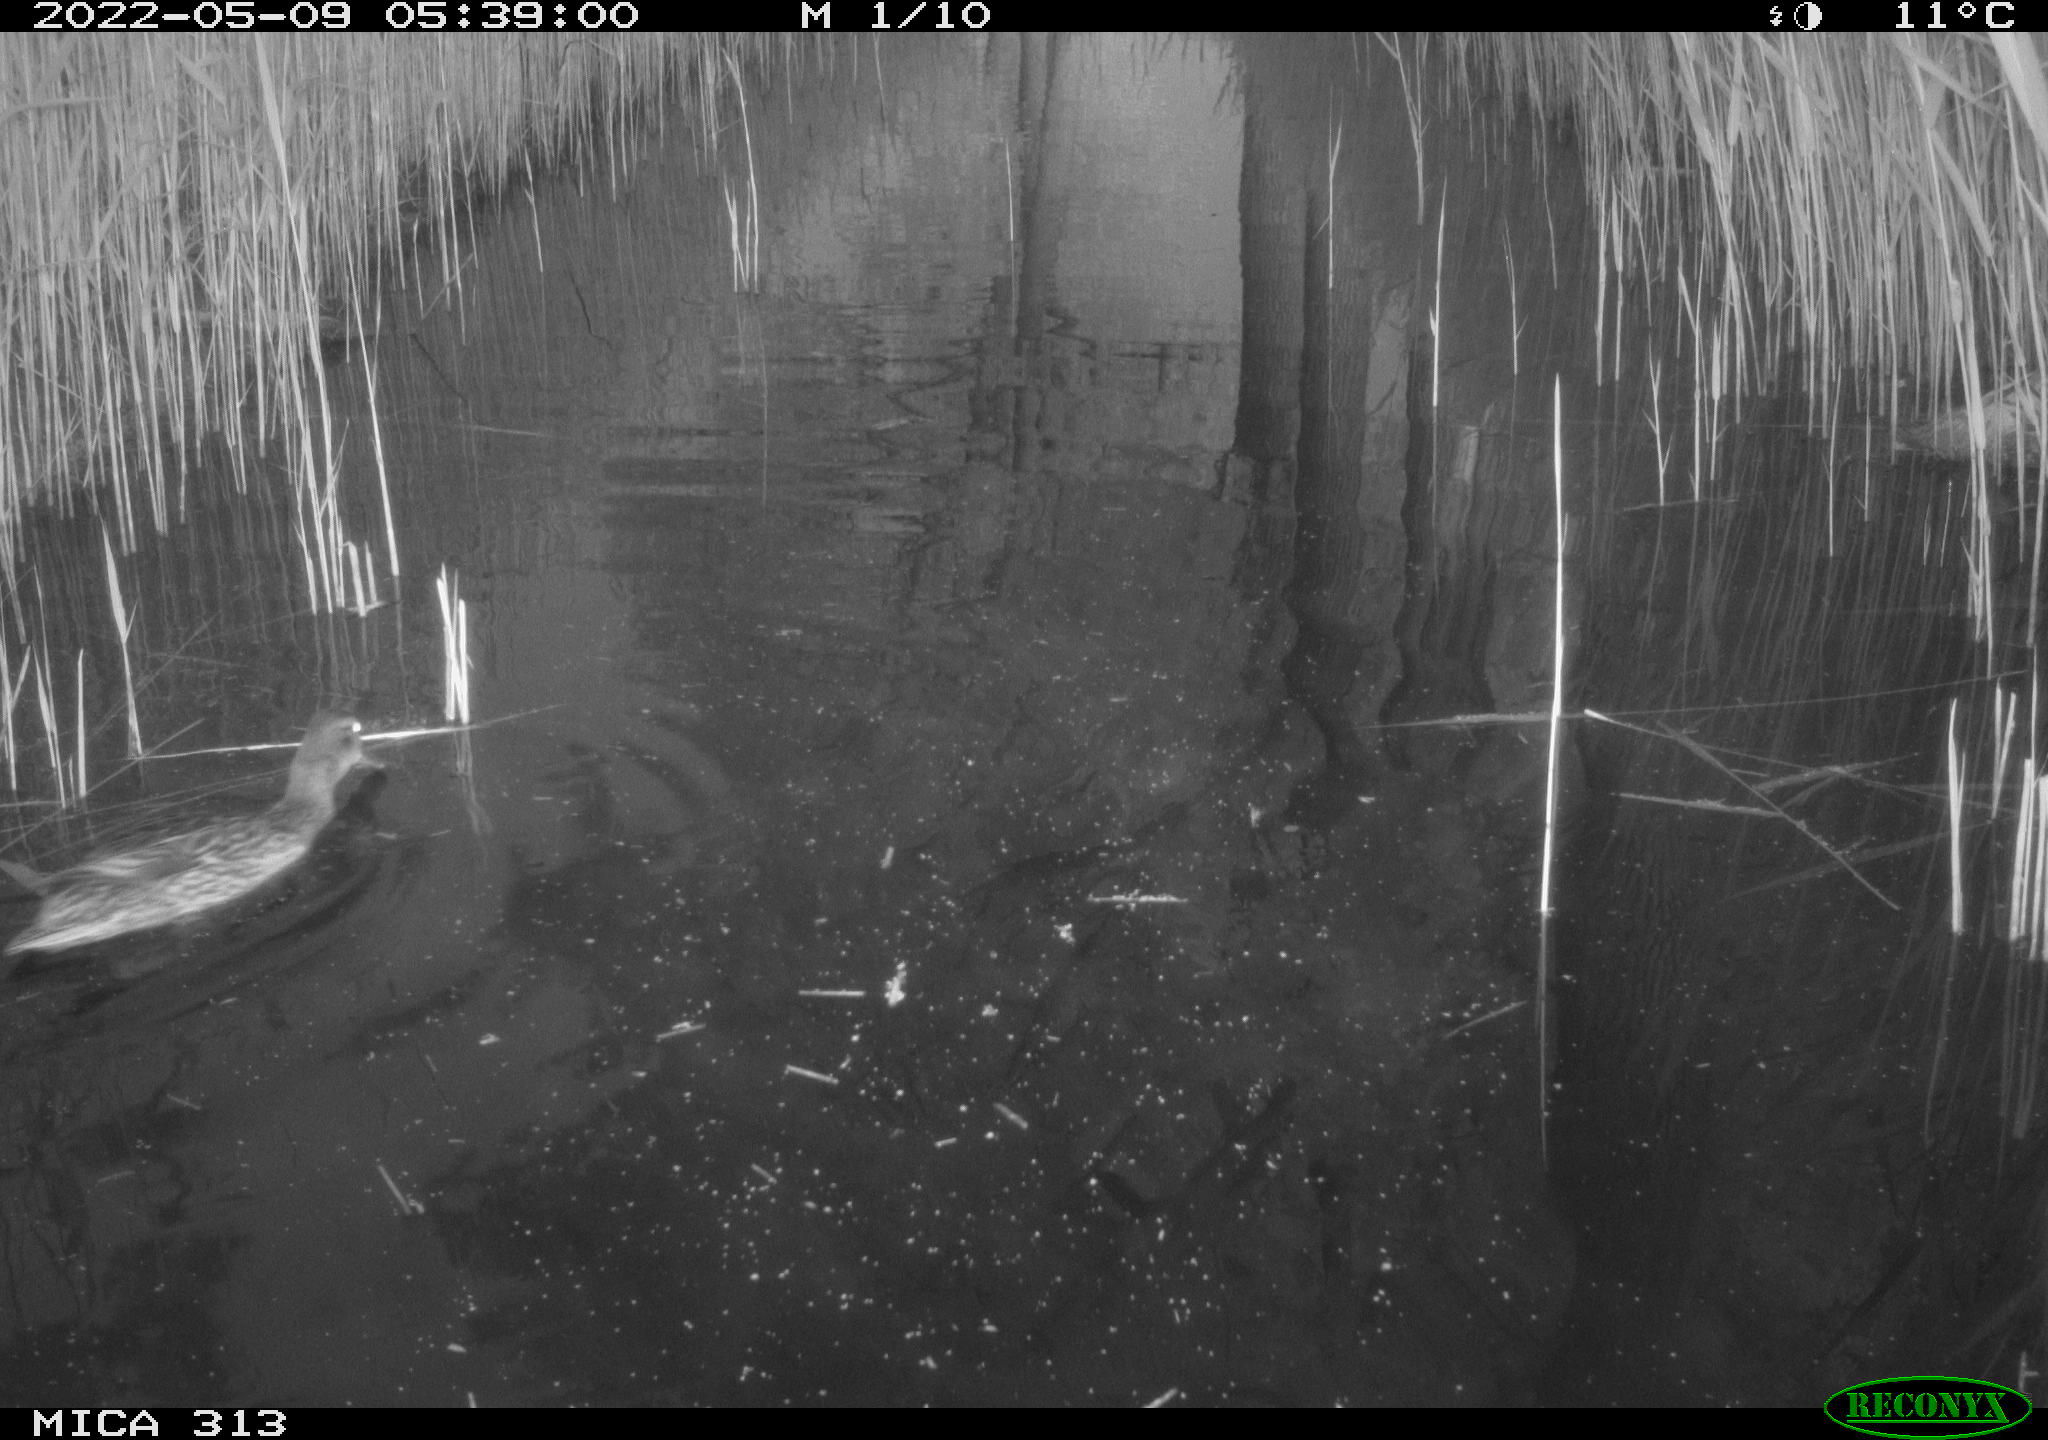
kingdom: Animalia
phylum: Chordata
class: Aves
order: Anseriformes
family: Anatidae
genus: Anas
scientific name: Anas platyrhynchos
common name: Mallard
